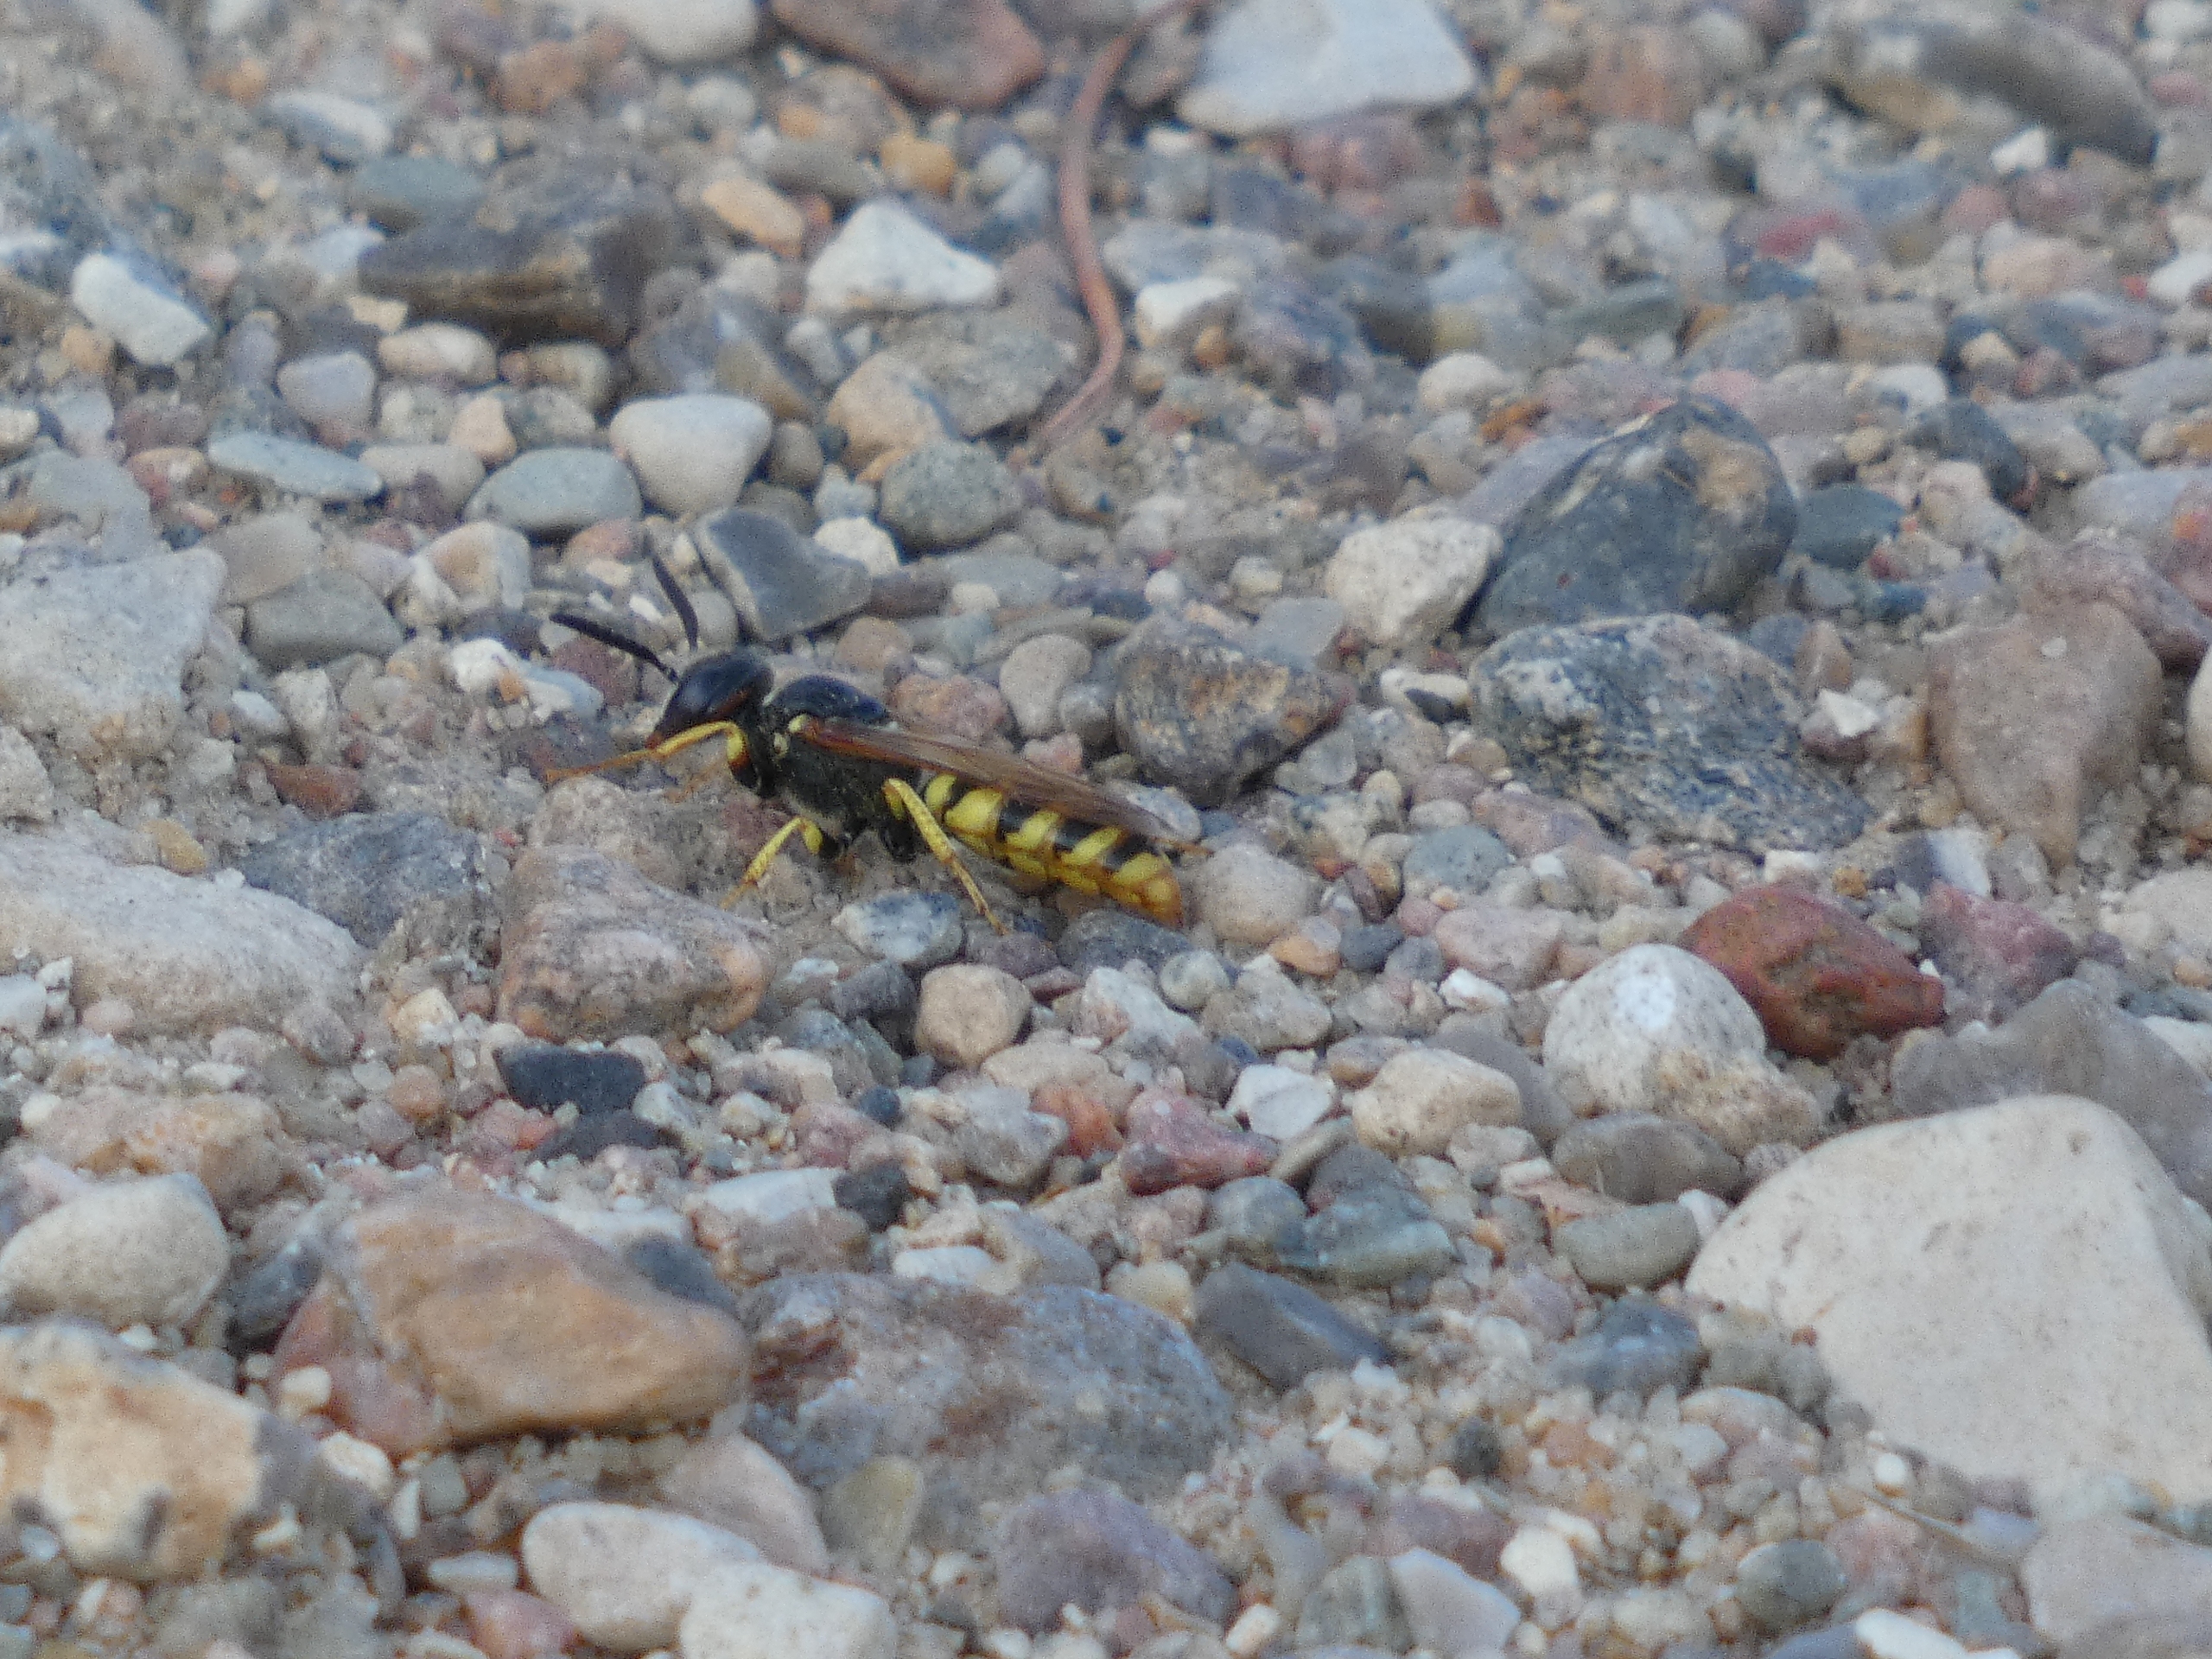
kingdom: Animalia
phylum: Arthropoda
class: Insecta
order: Hymenoptera
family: Crabronidae
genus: Philanthus
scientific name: Philanthus triangulum
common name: Biulv
